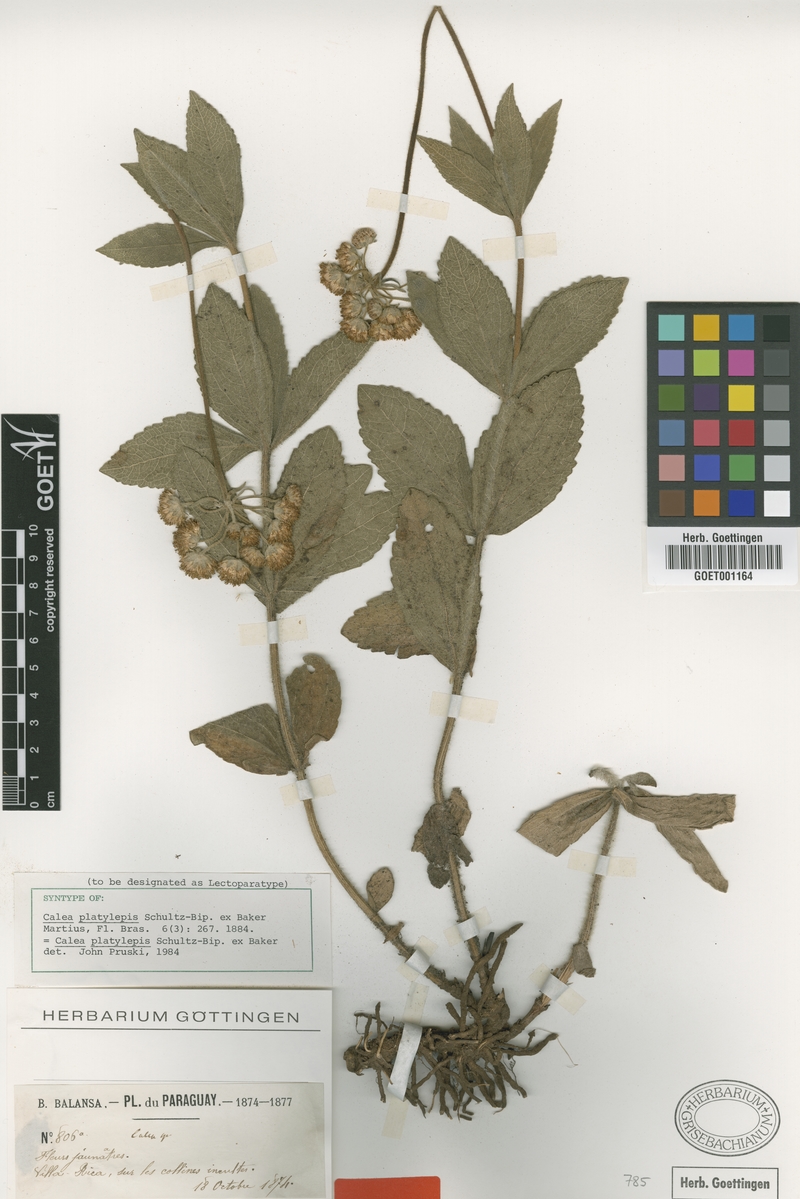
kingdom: Plantae
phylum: Tracheophyta
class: Magnoliopsida
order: Asterales
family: Asteraceae
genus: Calea
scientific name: Calea mediterranea
